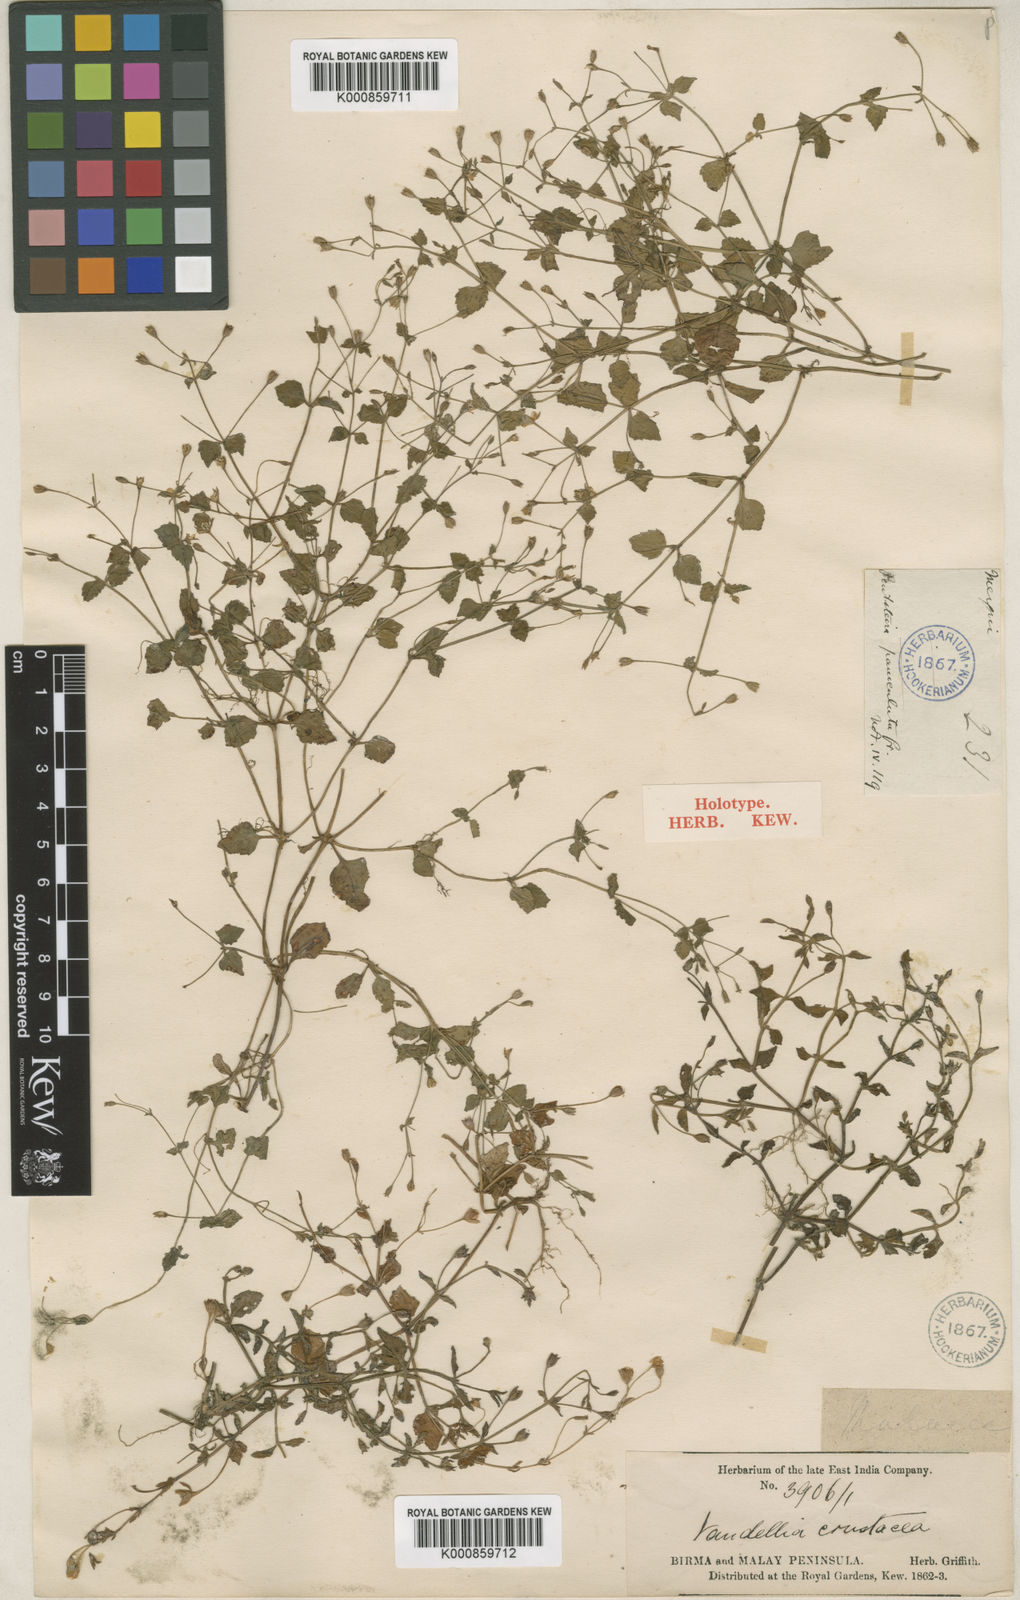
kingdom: Plantae
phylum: Tracheophyta
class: Magnoliopsida
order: Lamiales
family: Linderniaceae
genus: Torenia
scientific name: Torenia crustacea
